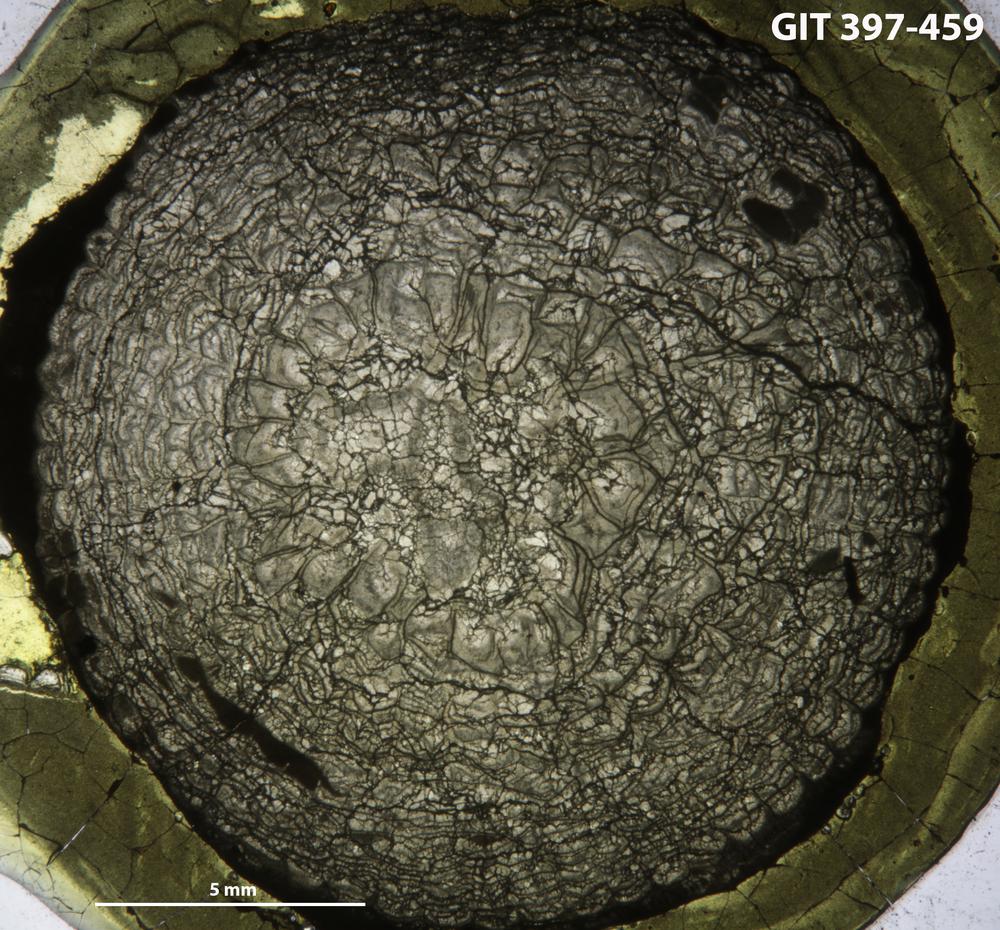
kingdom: Animalia
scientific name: Animalia
